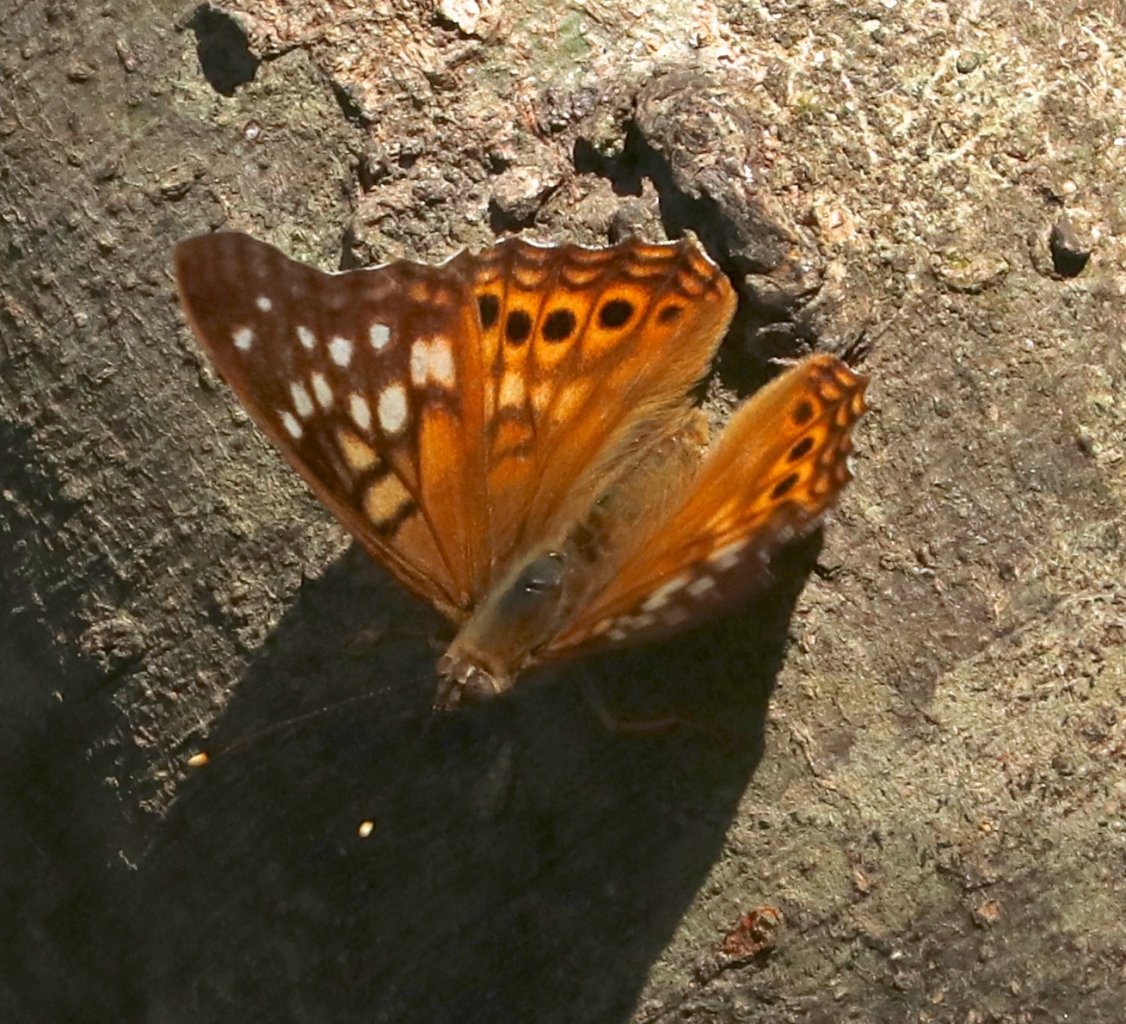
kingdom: Animalia
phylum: Arthropoda
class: Insecta
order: Lepidoptera
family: Nymphalidae
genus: Asterocampa
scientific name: Asterocampa clyton
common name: Tawny Emperor
